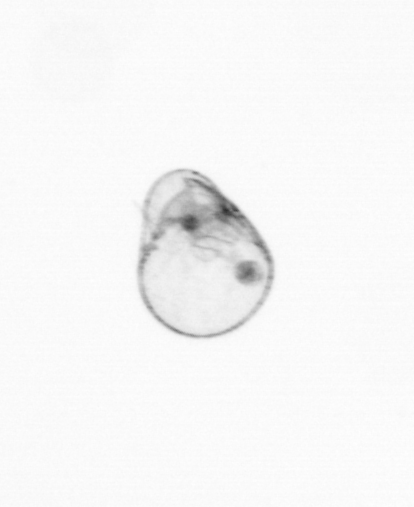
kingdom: Chromista
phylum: Myzozoa
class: Dinophyceae
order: Noctilucales
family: Noctilucaceae
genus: Noctiluca
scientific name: Noctiluca scintillans
